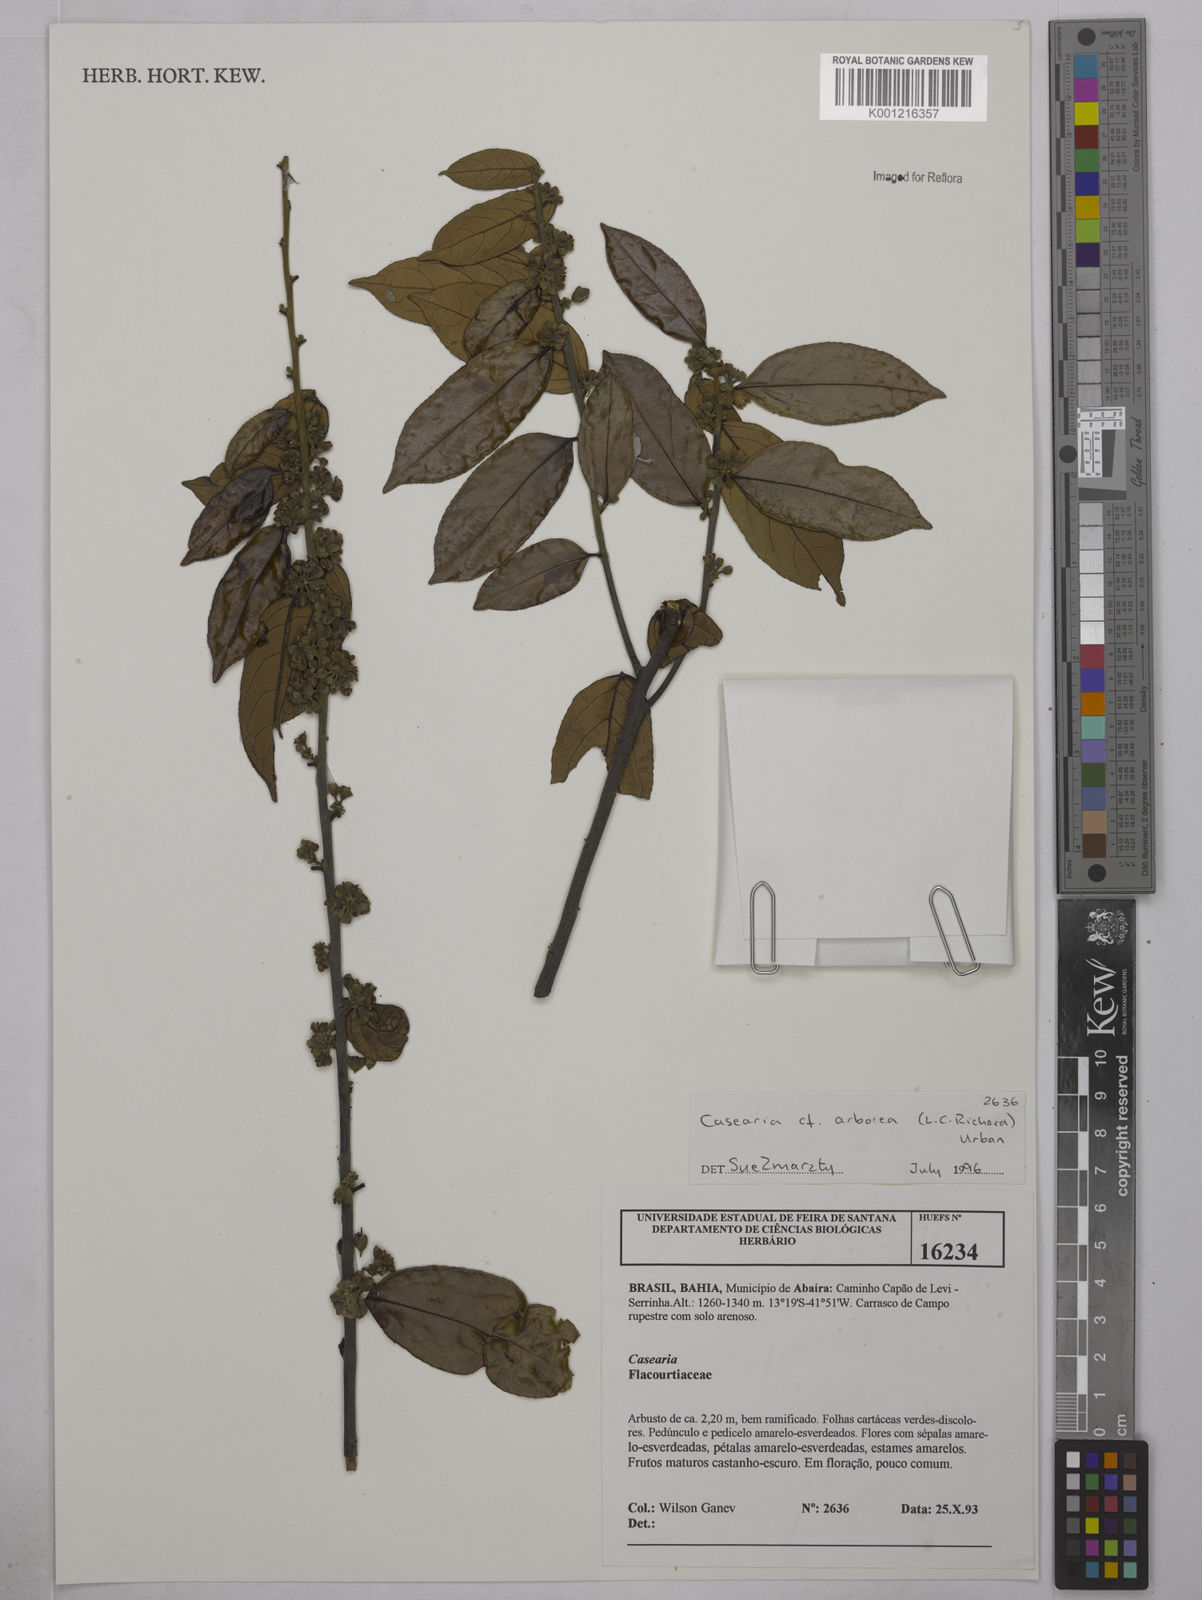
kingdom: Plantae
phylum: Tracheophyta
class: Magnoliopsida
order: Malpighiales
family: Salicaceae
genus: Casearia
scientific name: Casearia arborea
